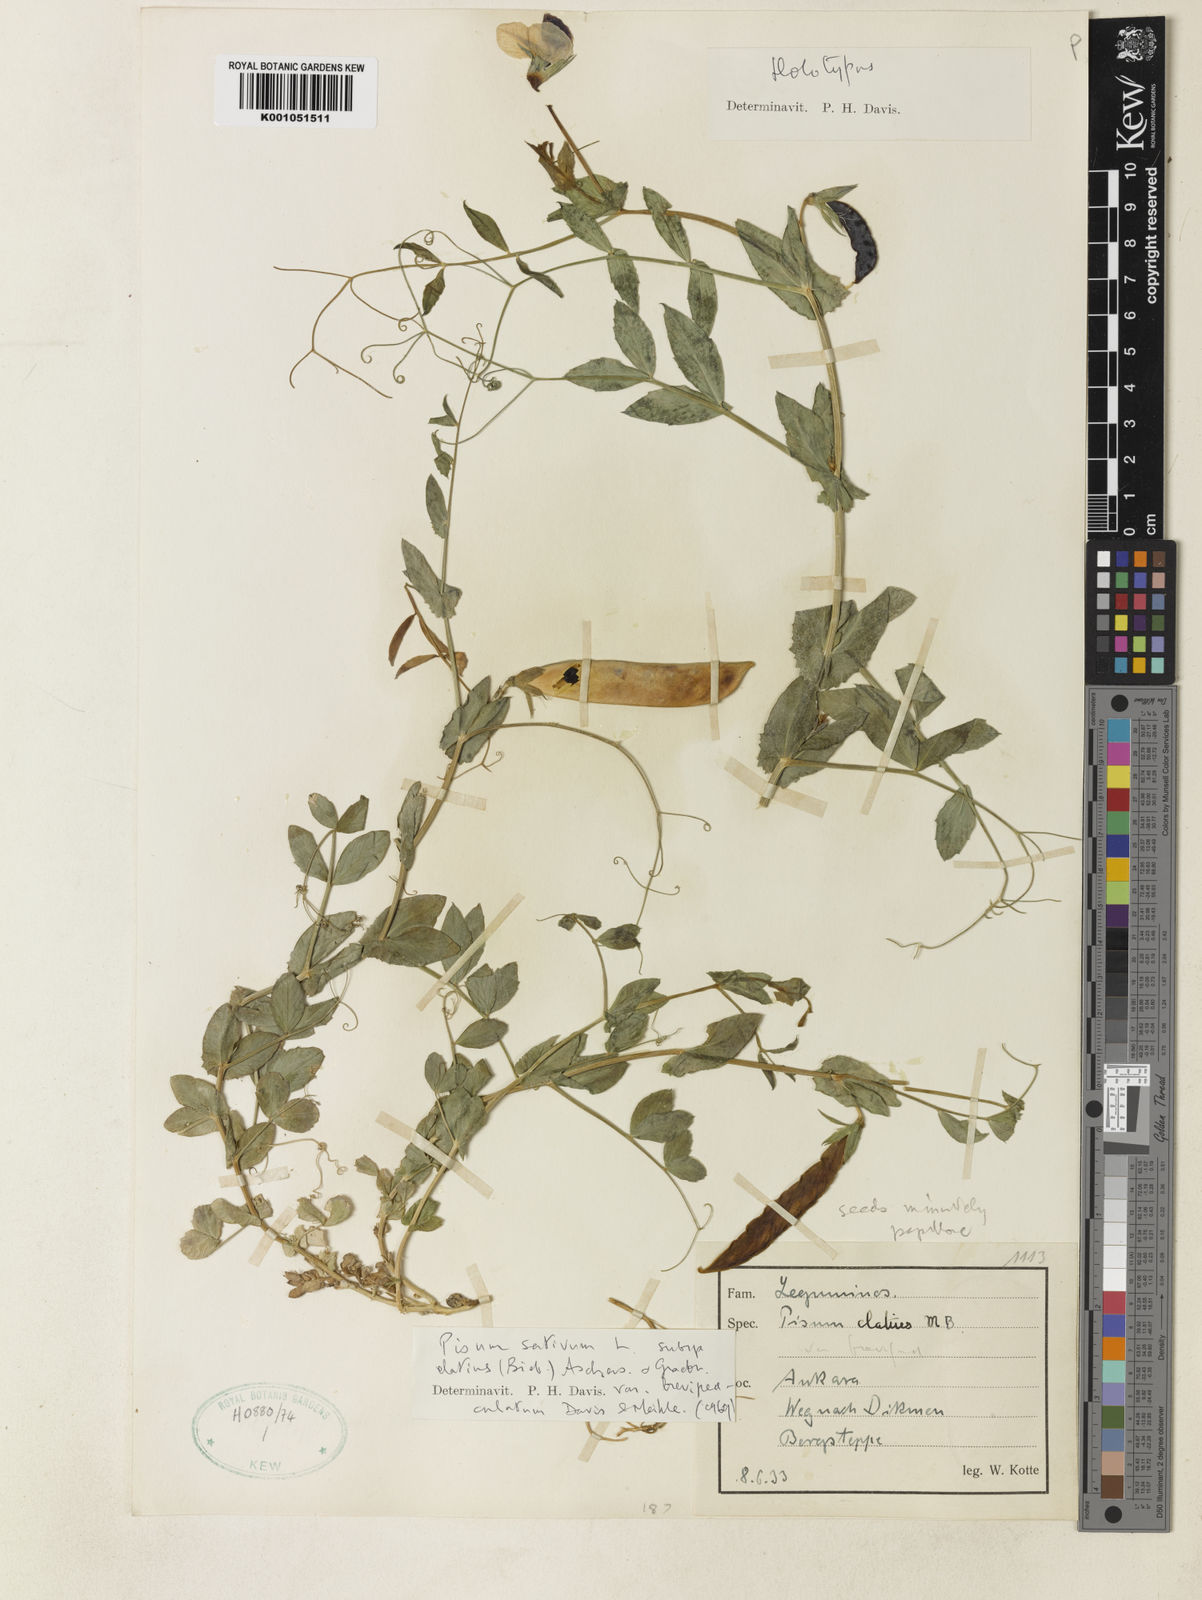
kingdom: Plantae
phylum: Tracheophyta
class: Magnoliopsida
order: Fabales
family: Fabaceae
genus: Lathyrus
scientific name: Lathyrus oleraceus
